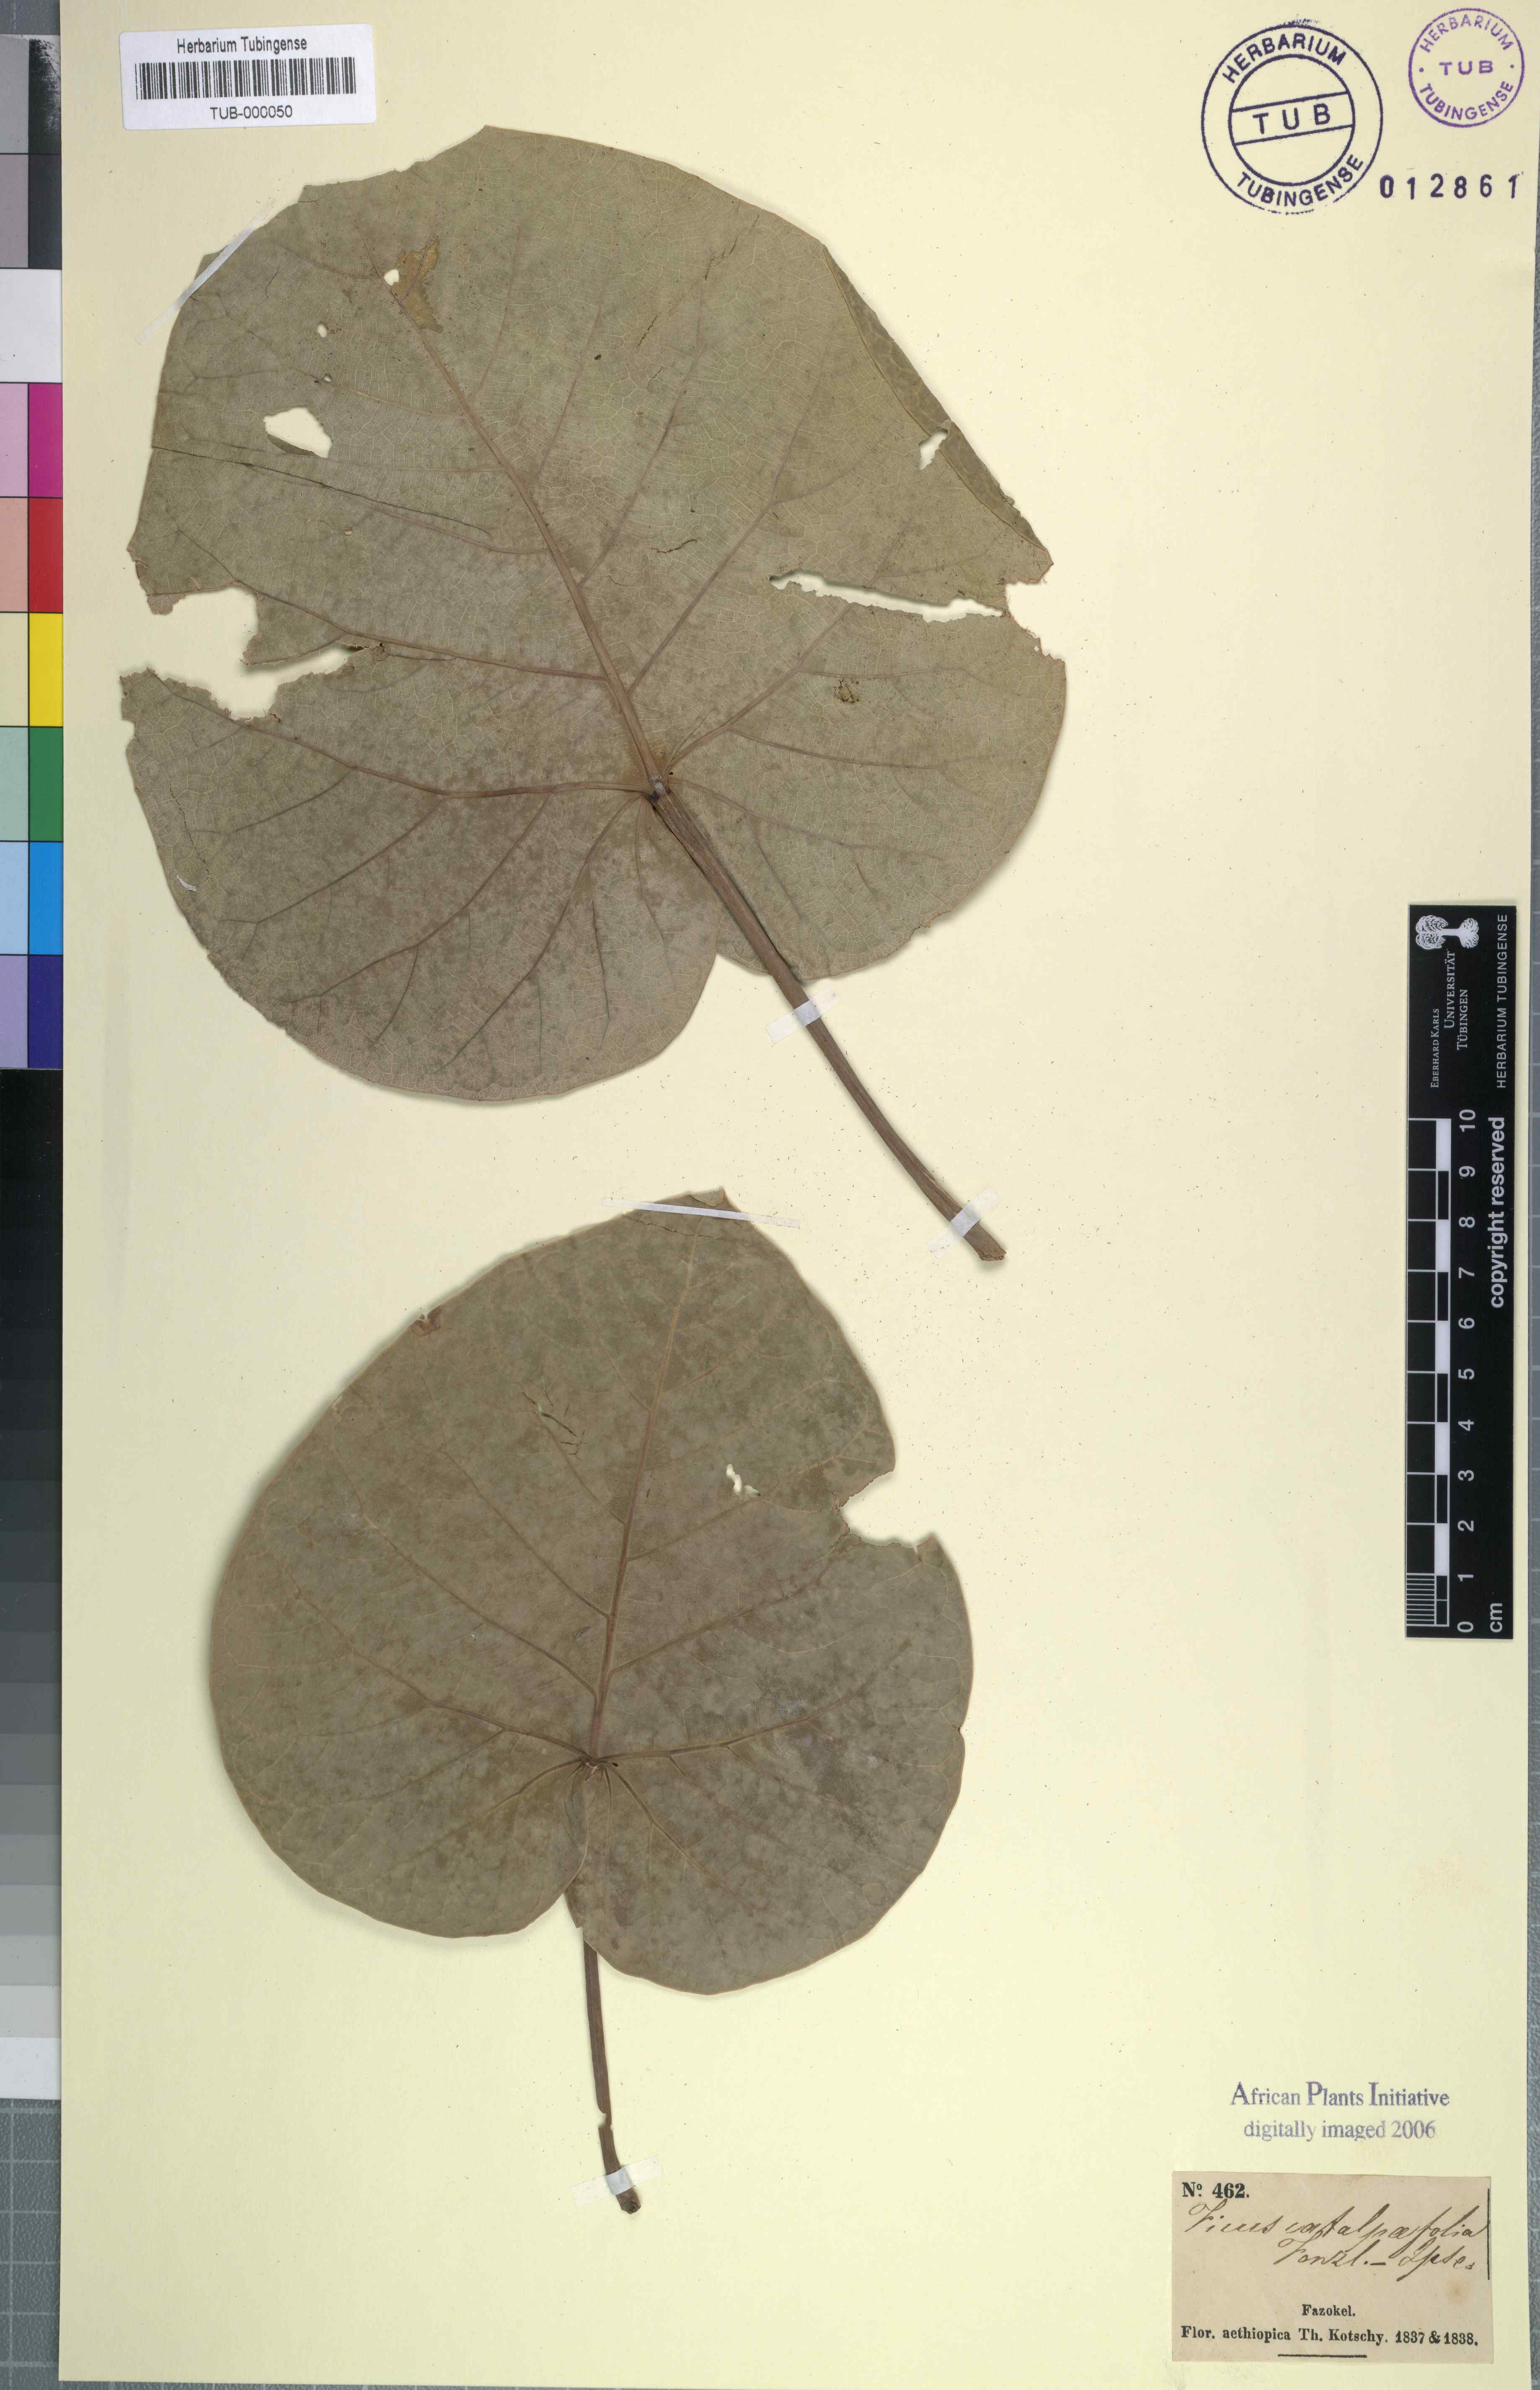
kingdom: Plantae
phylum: Tracheophyta
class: Magnoliopsida
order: Rosales
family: Moraceae
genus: Ficus
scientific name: Ficus
